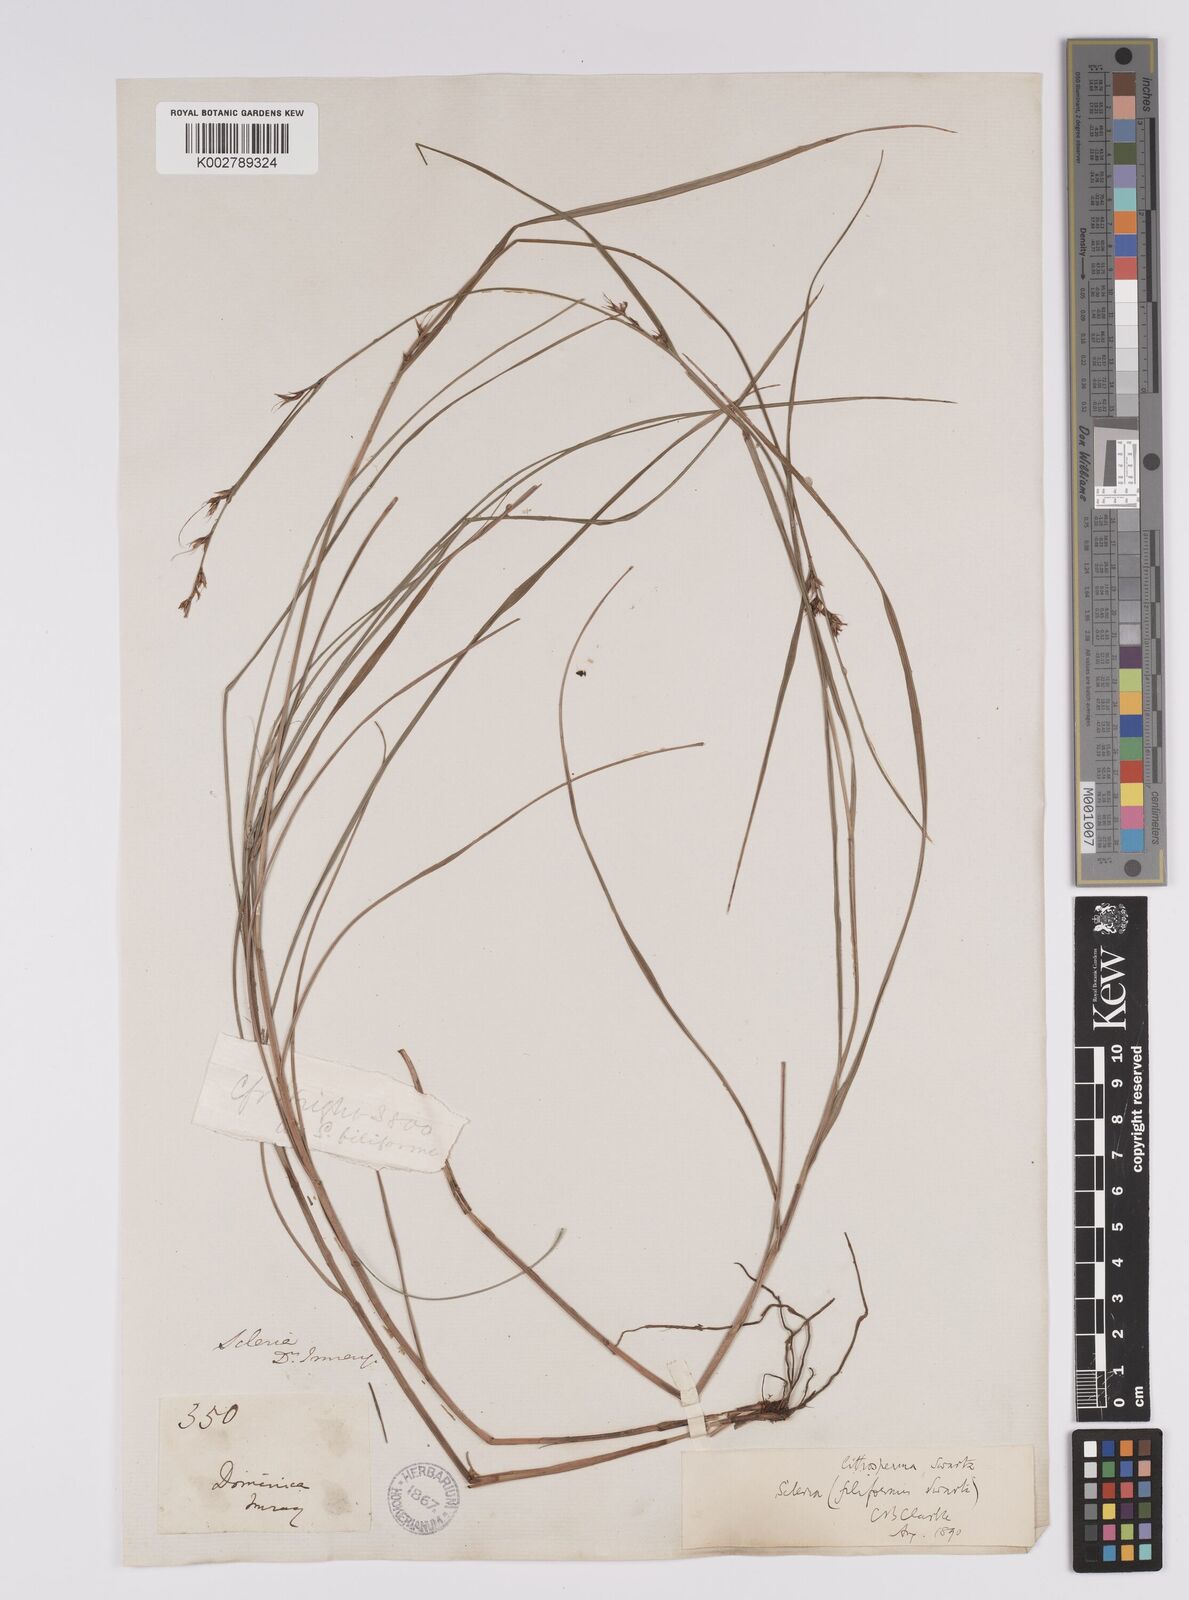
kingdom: Plantae
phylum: Tracheophyta
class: Liliopsida
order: Poales
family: Cyperaceae
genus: Scleria
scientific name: Scleria lithosperma
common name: Florida keys nut-rush
